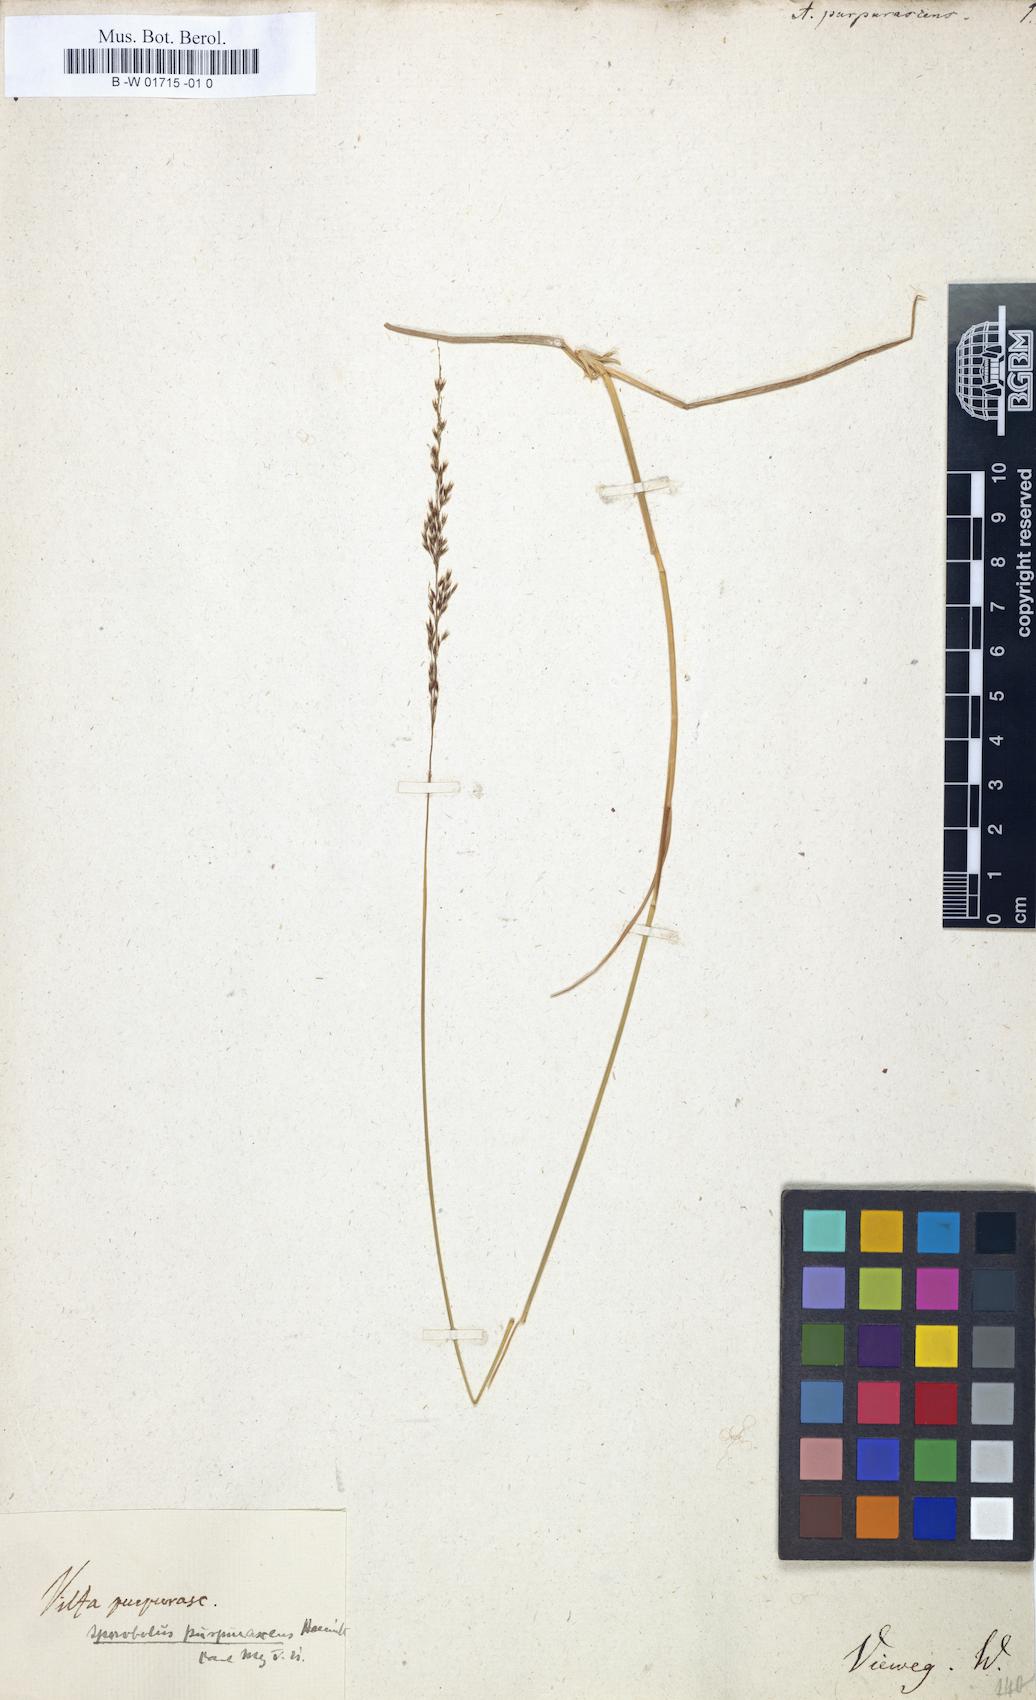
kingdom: Plantae
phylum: Tracheophyta
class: Liliopsida
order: Poales
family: Poaceae
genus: Sporobolus
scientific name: Sporobolus purpurascens
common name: Purple dropseed
